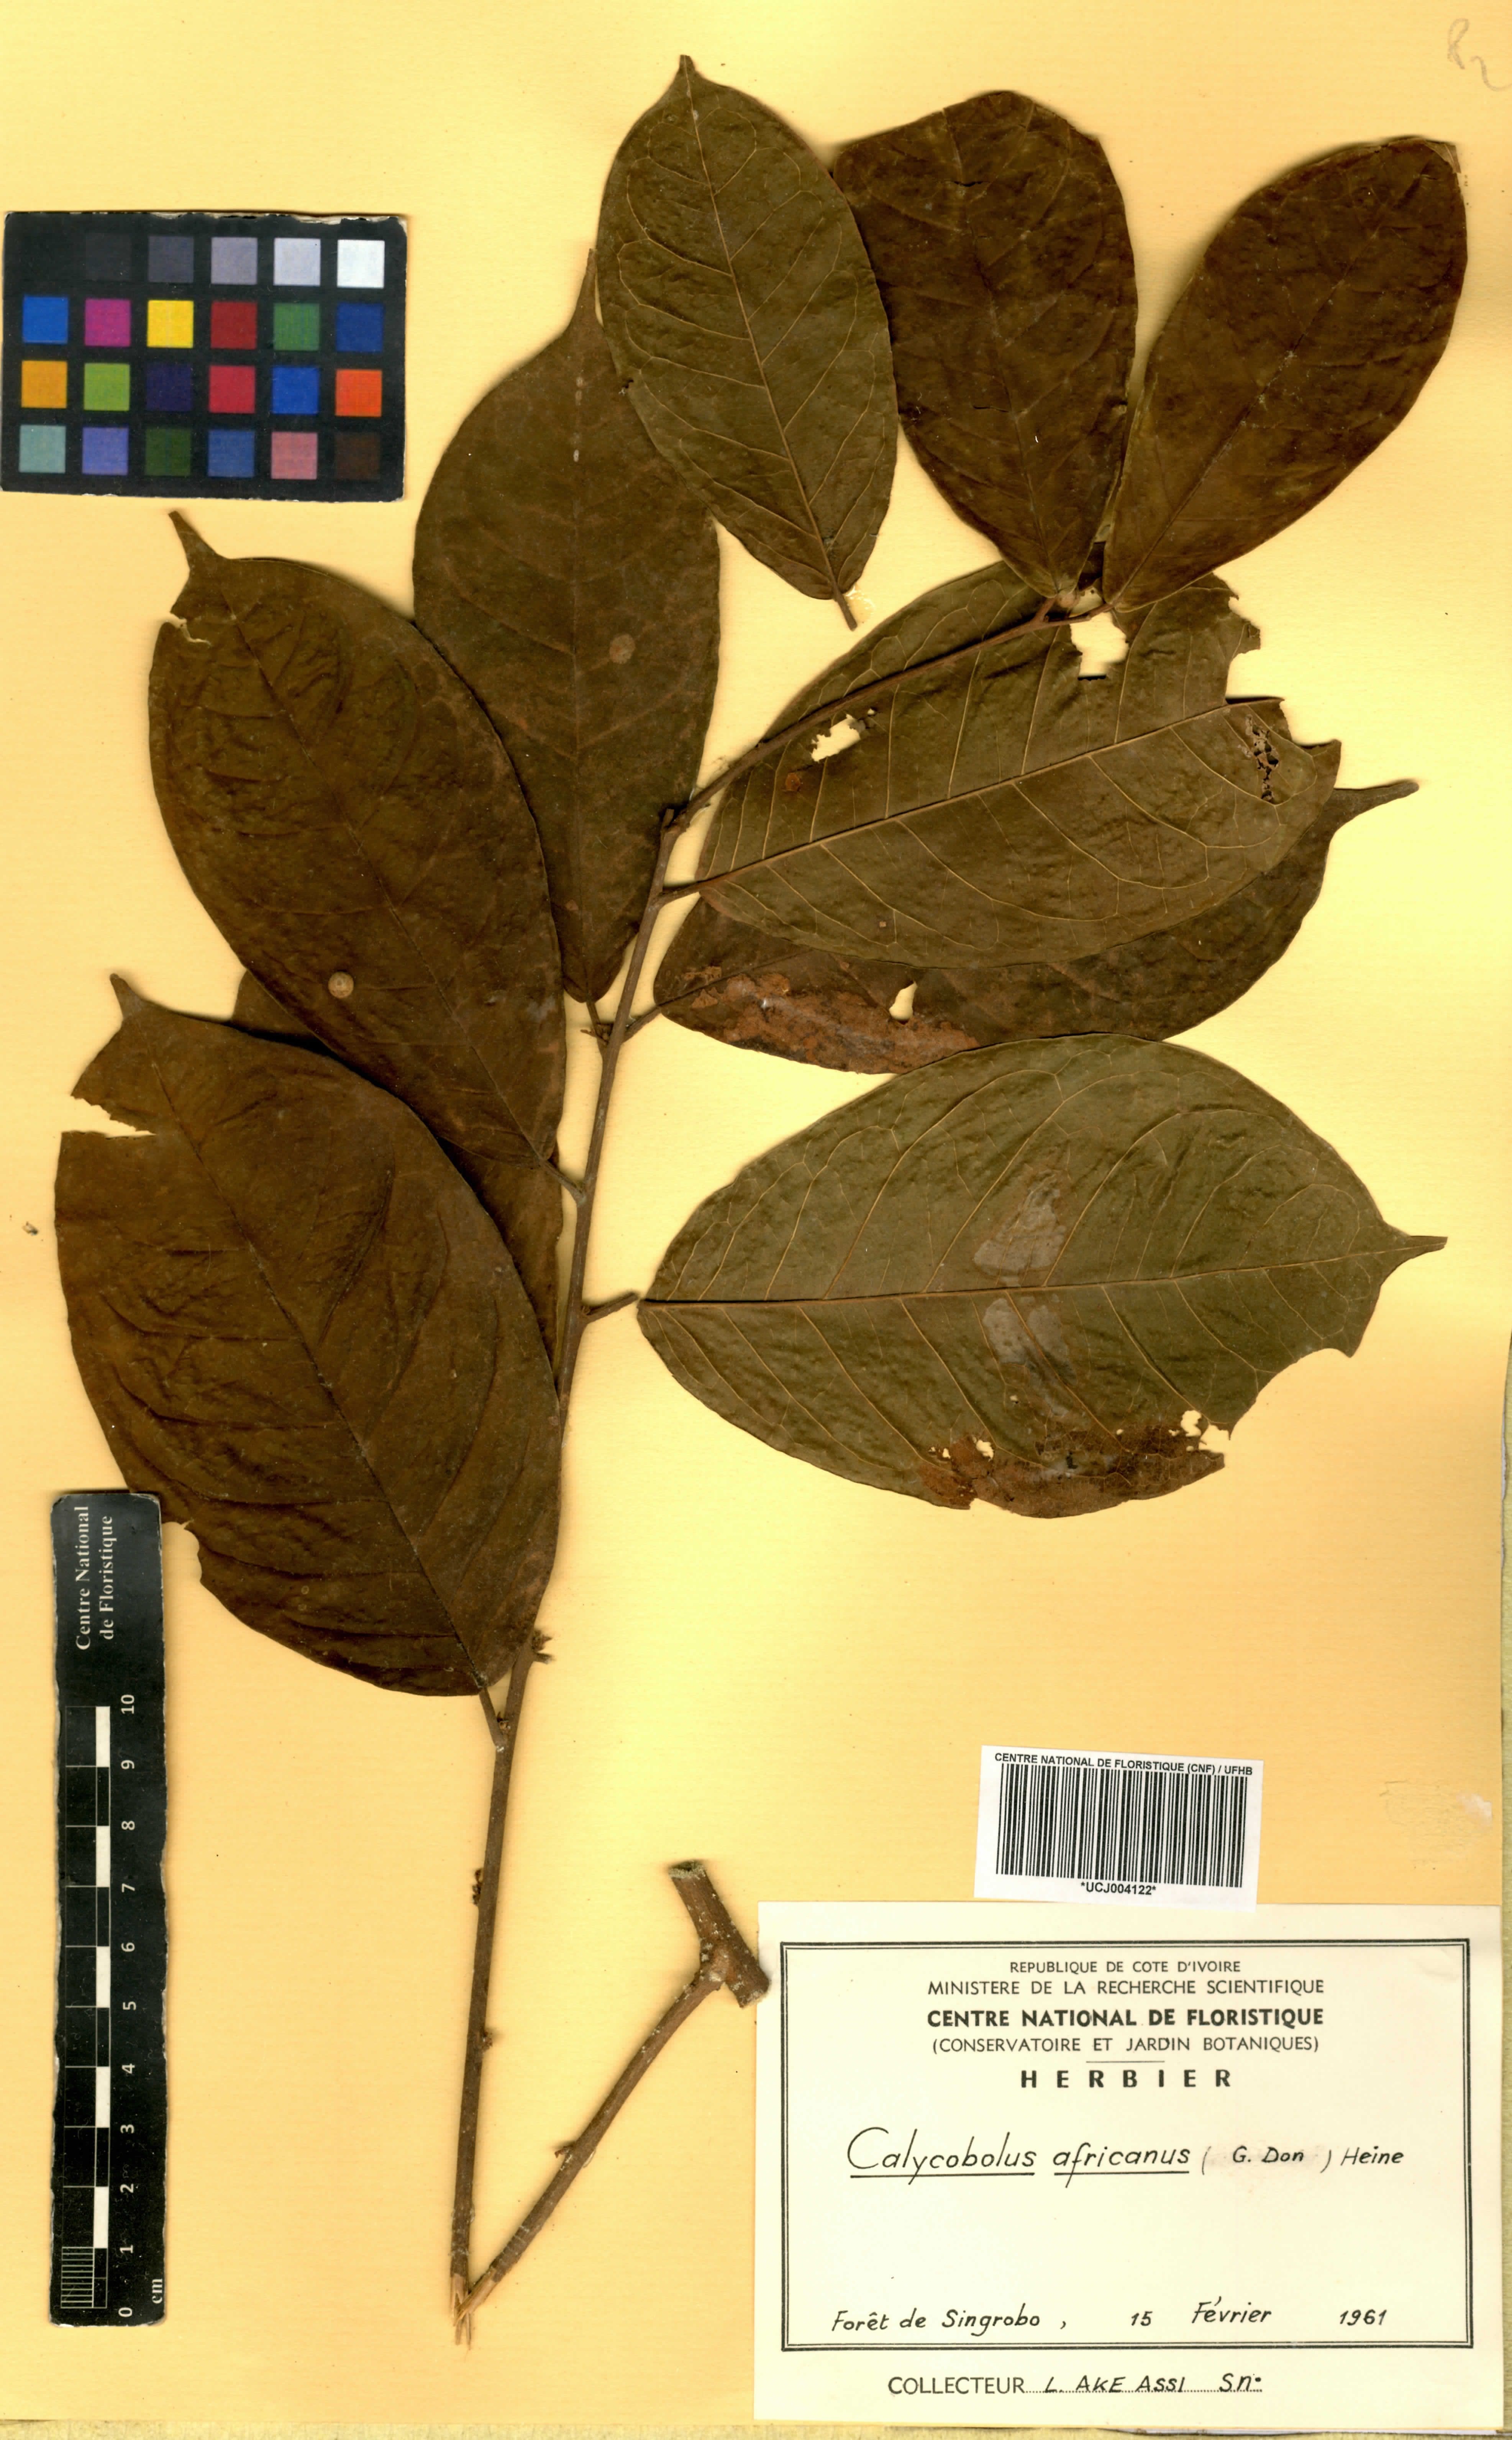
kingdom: Plantae
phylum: Tracheophyta
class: Magnoliopsida
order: Solanales
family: Convolvulaceae
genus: Calycobolus
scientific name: Calycobolus africanus
